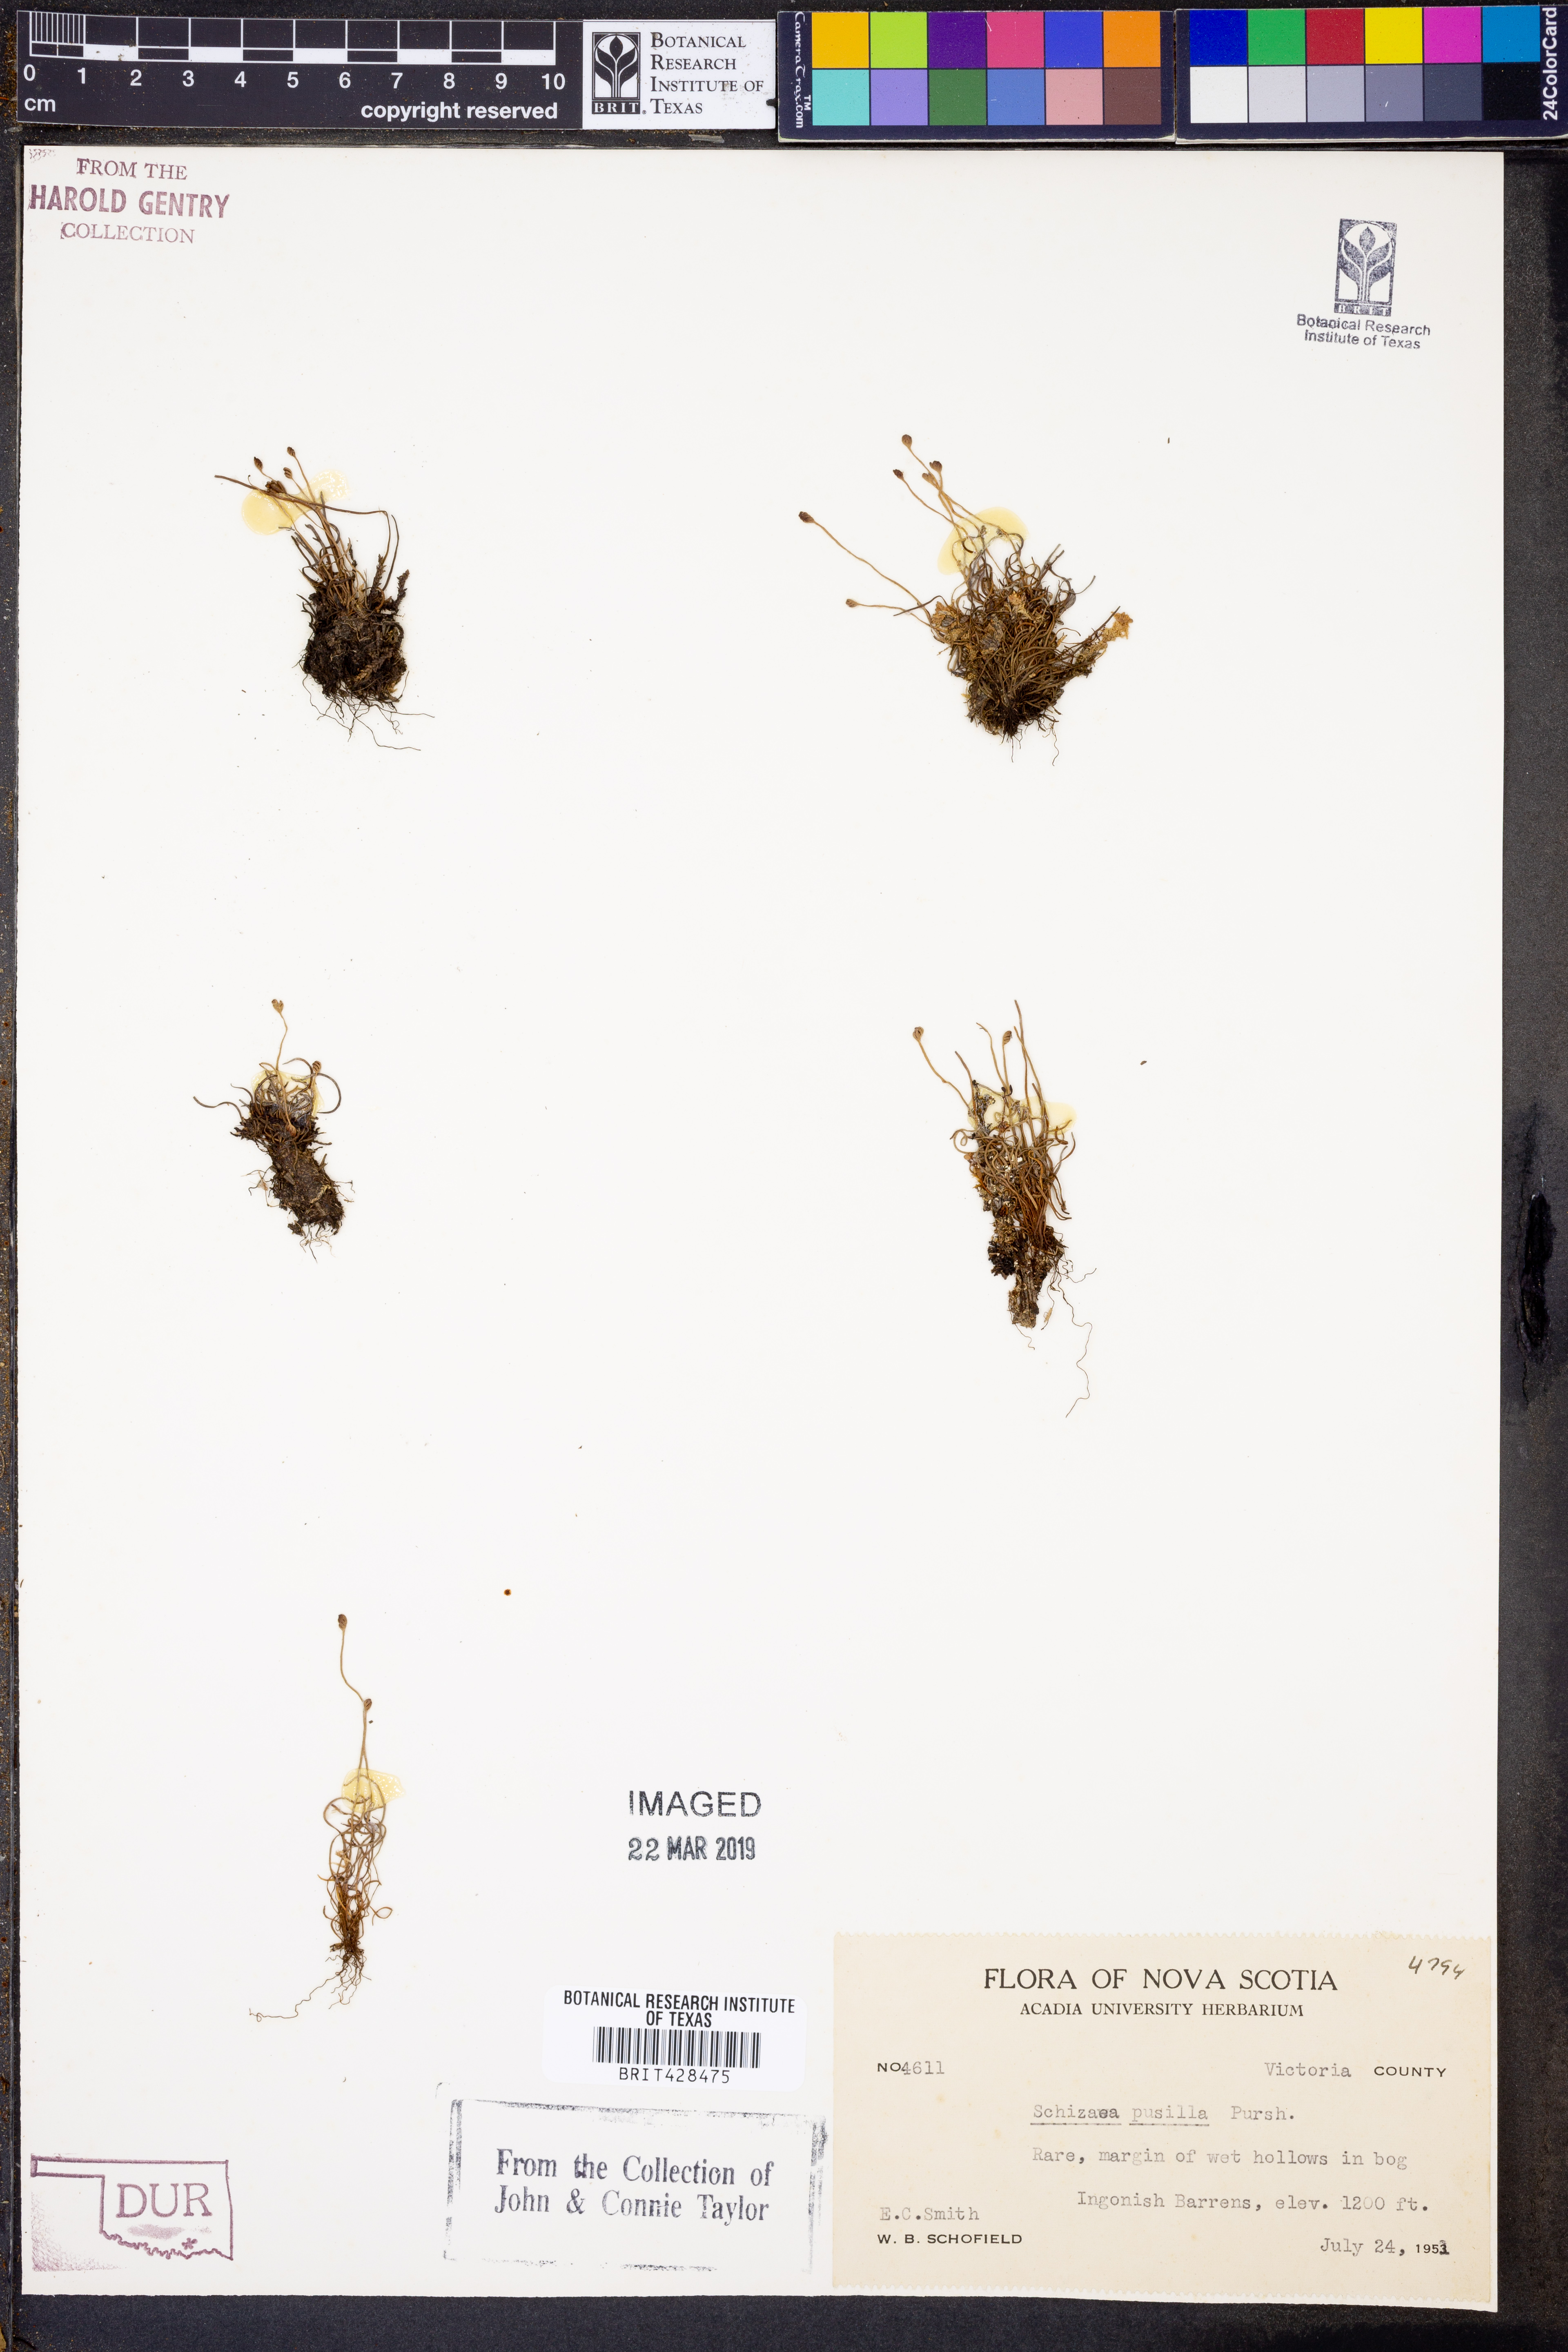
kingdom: Plantae
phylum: Tracheophyta
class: Polypodiopsida
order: Schizaeales
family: Schizaeaceae
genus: Schizaea
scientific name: Schizaea pusilla
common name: Curly-grass fern
